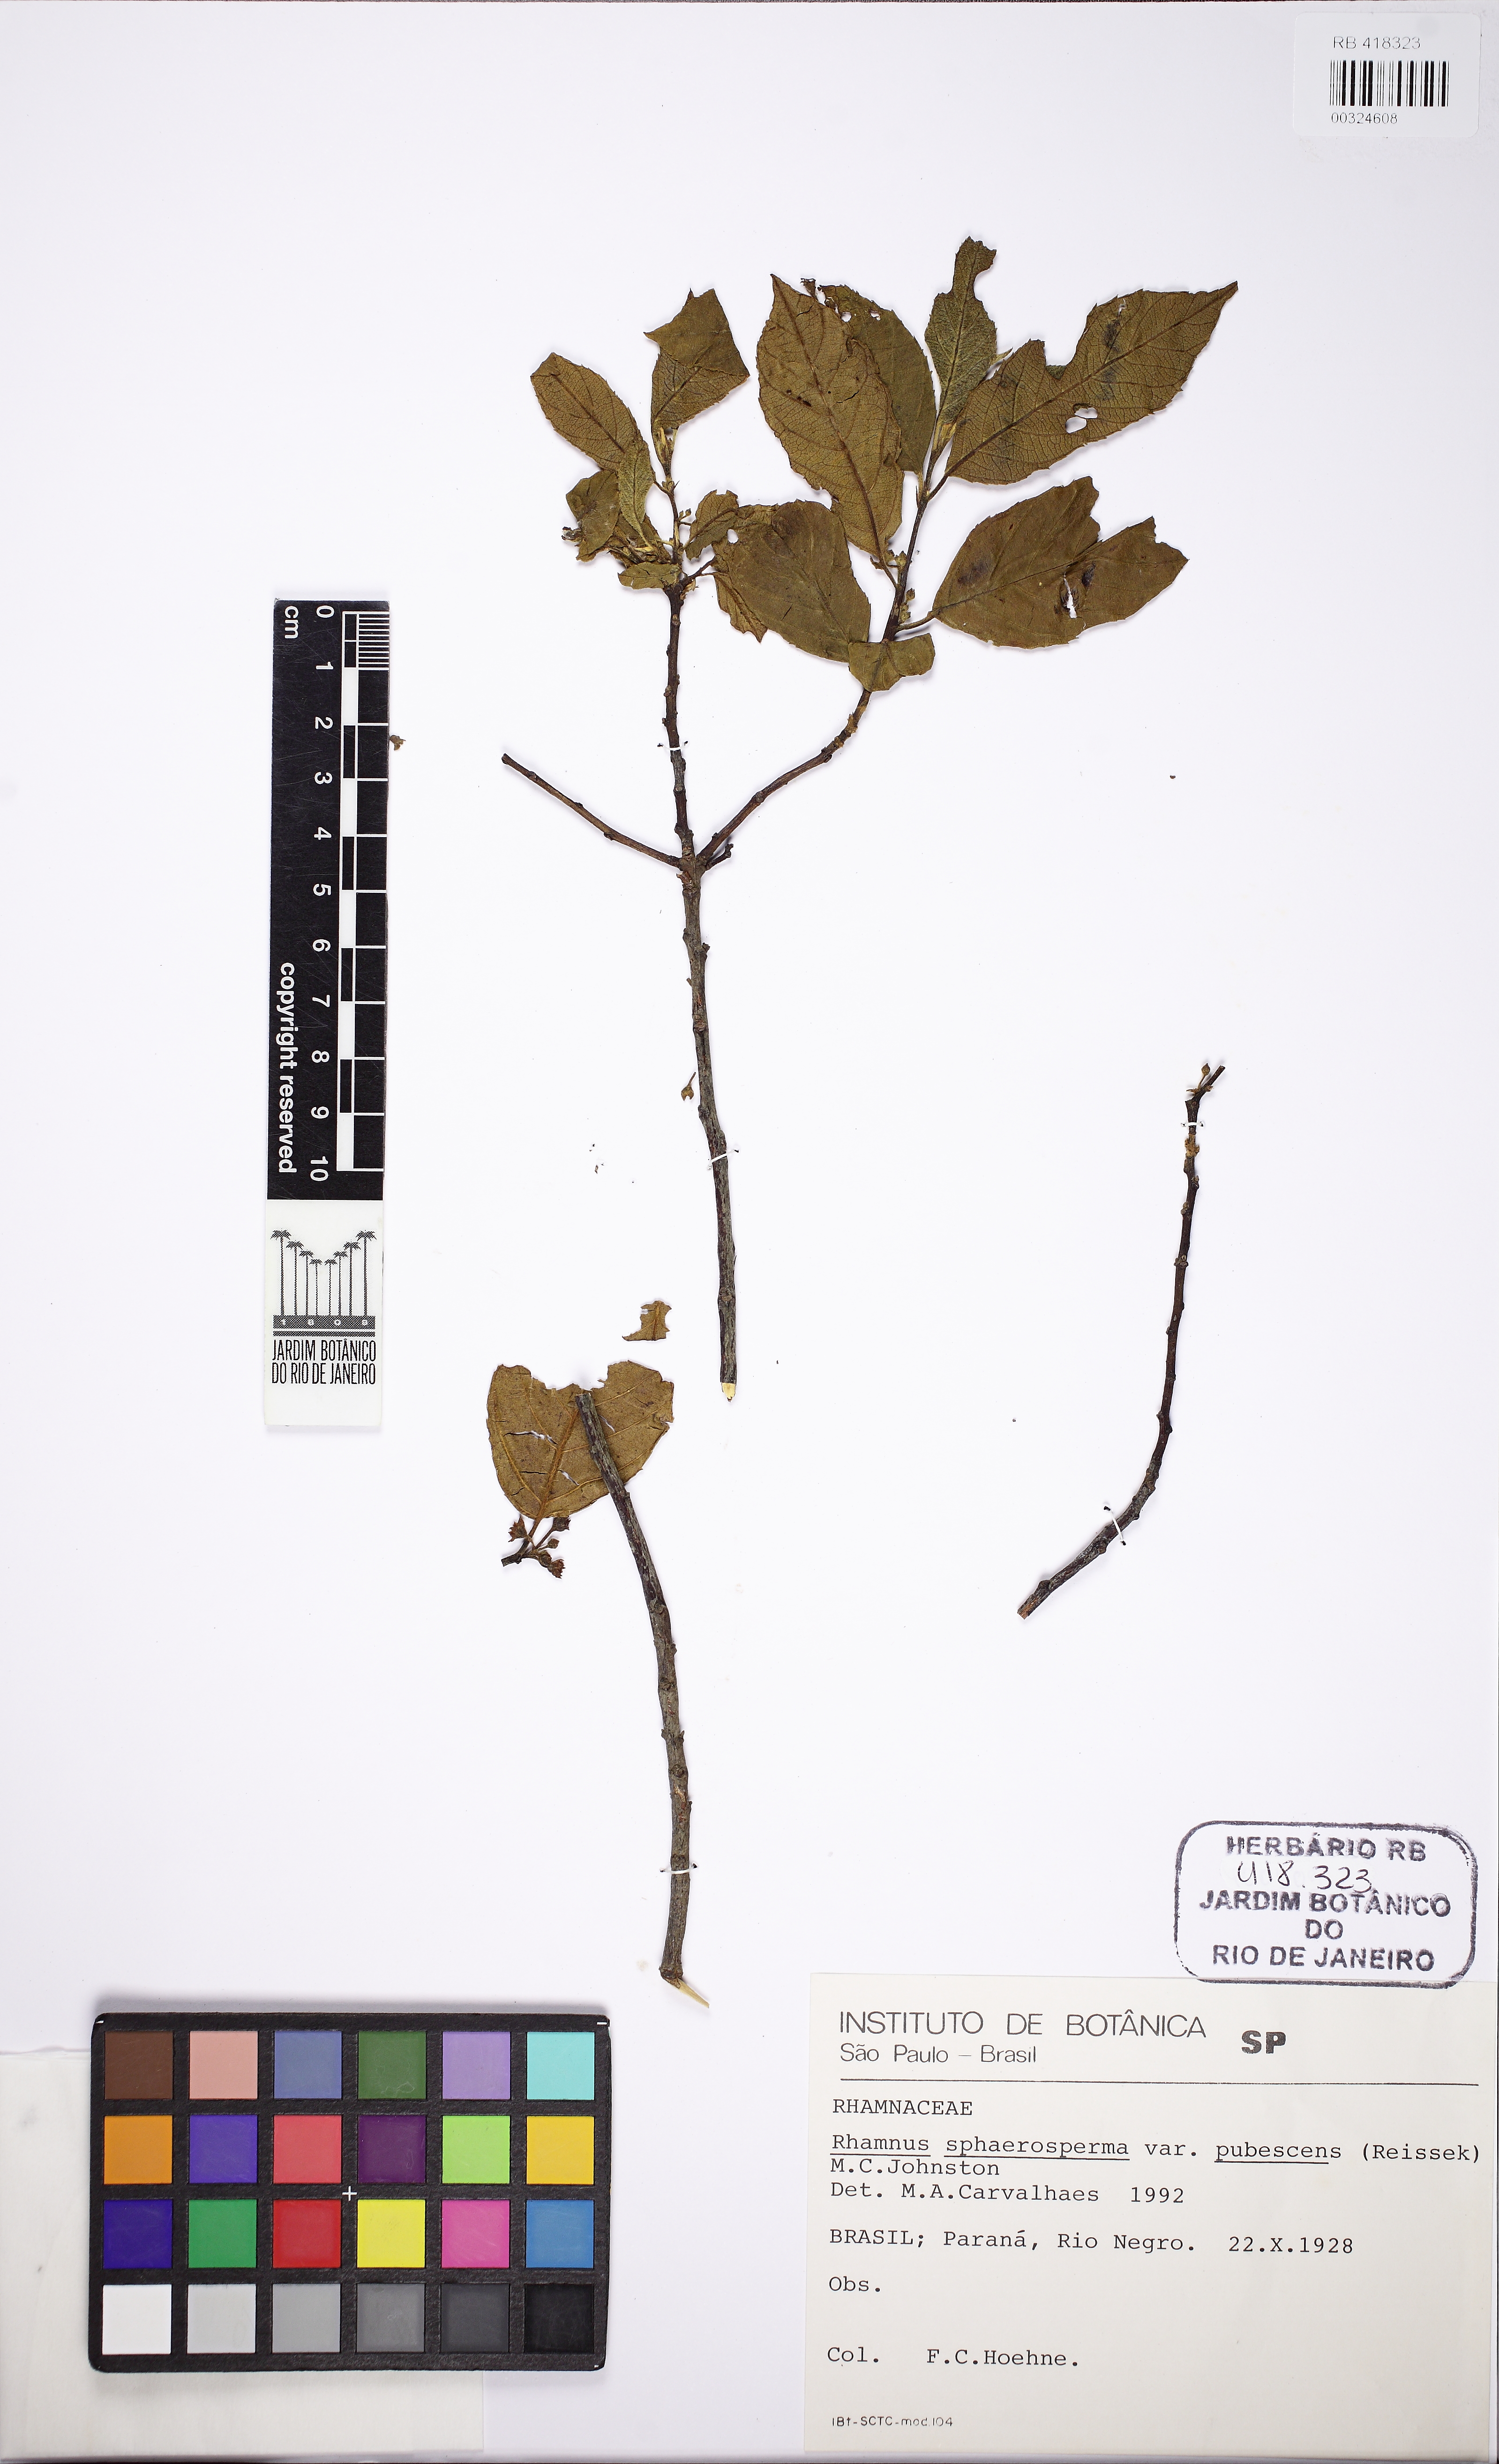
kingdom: Plantae
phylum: Tracheophyta
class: Magnoliopsida
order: Rosales
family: Rhamnaceae
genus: Frangula
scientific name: Frangula sphaerosperma
